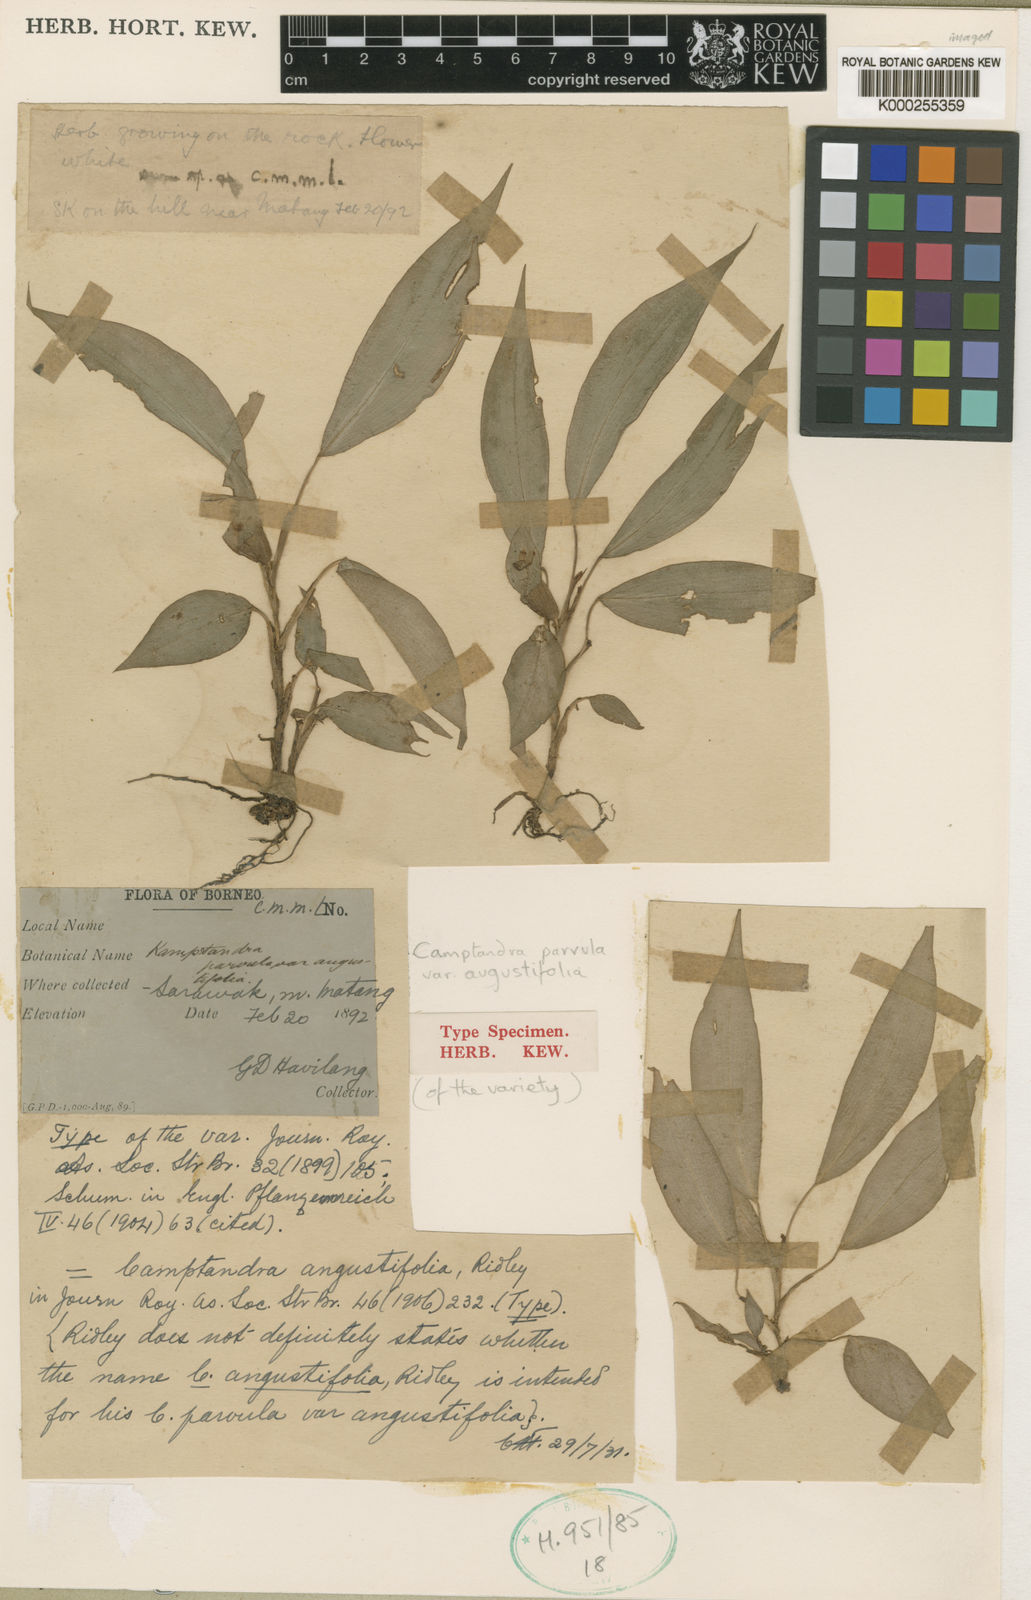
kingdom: Plantae
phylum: Tracheophyta
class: Liliopsida
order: Zingiberales
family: Zingiberaceae
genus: Camptandra
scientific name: Camptandra parvula
